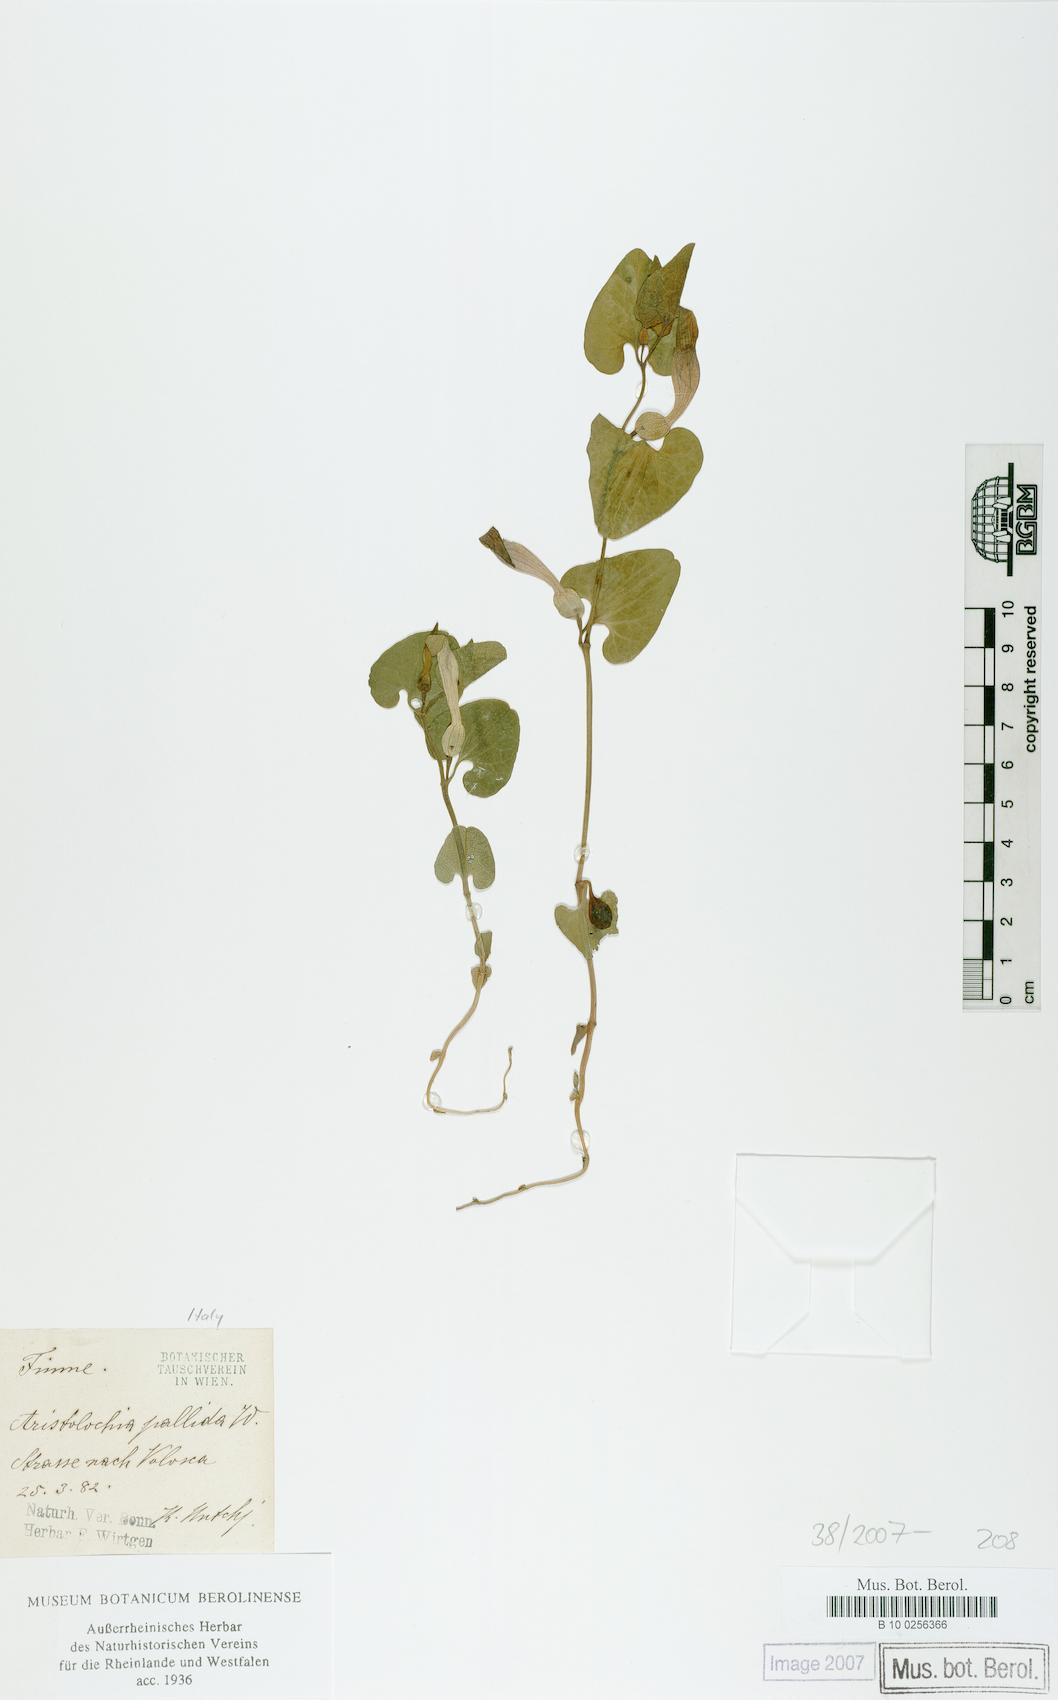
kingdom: Plantae
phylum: Tracheophyta
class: Magnoliopsida
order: Piperales
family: Aristolochiaceae
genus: Aristolochia
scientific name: Aristolochia pallida
